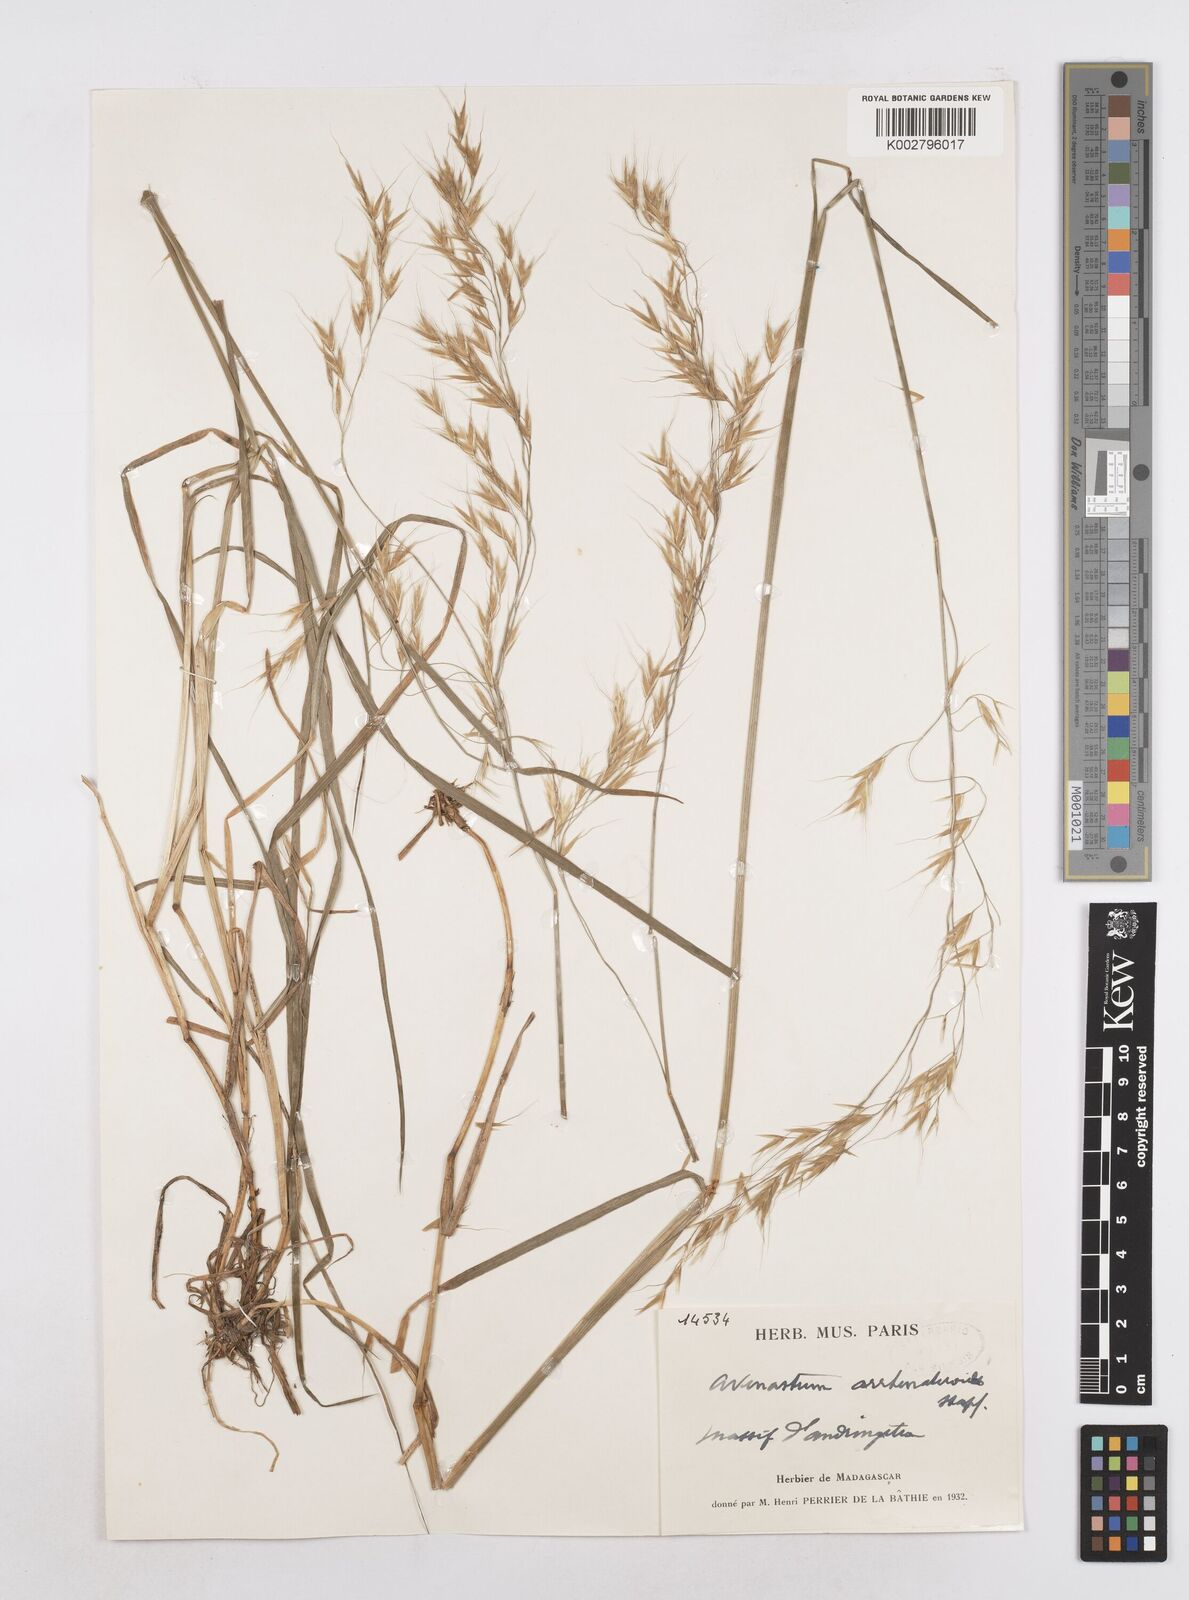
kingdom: Plantae
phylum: Tracheophyta
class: Liliopsida
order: Poales
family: Poaceae
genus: Trisetopsis
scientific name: Trisetopsis elongata
